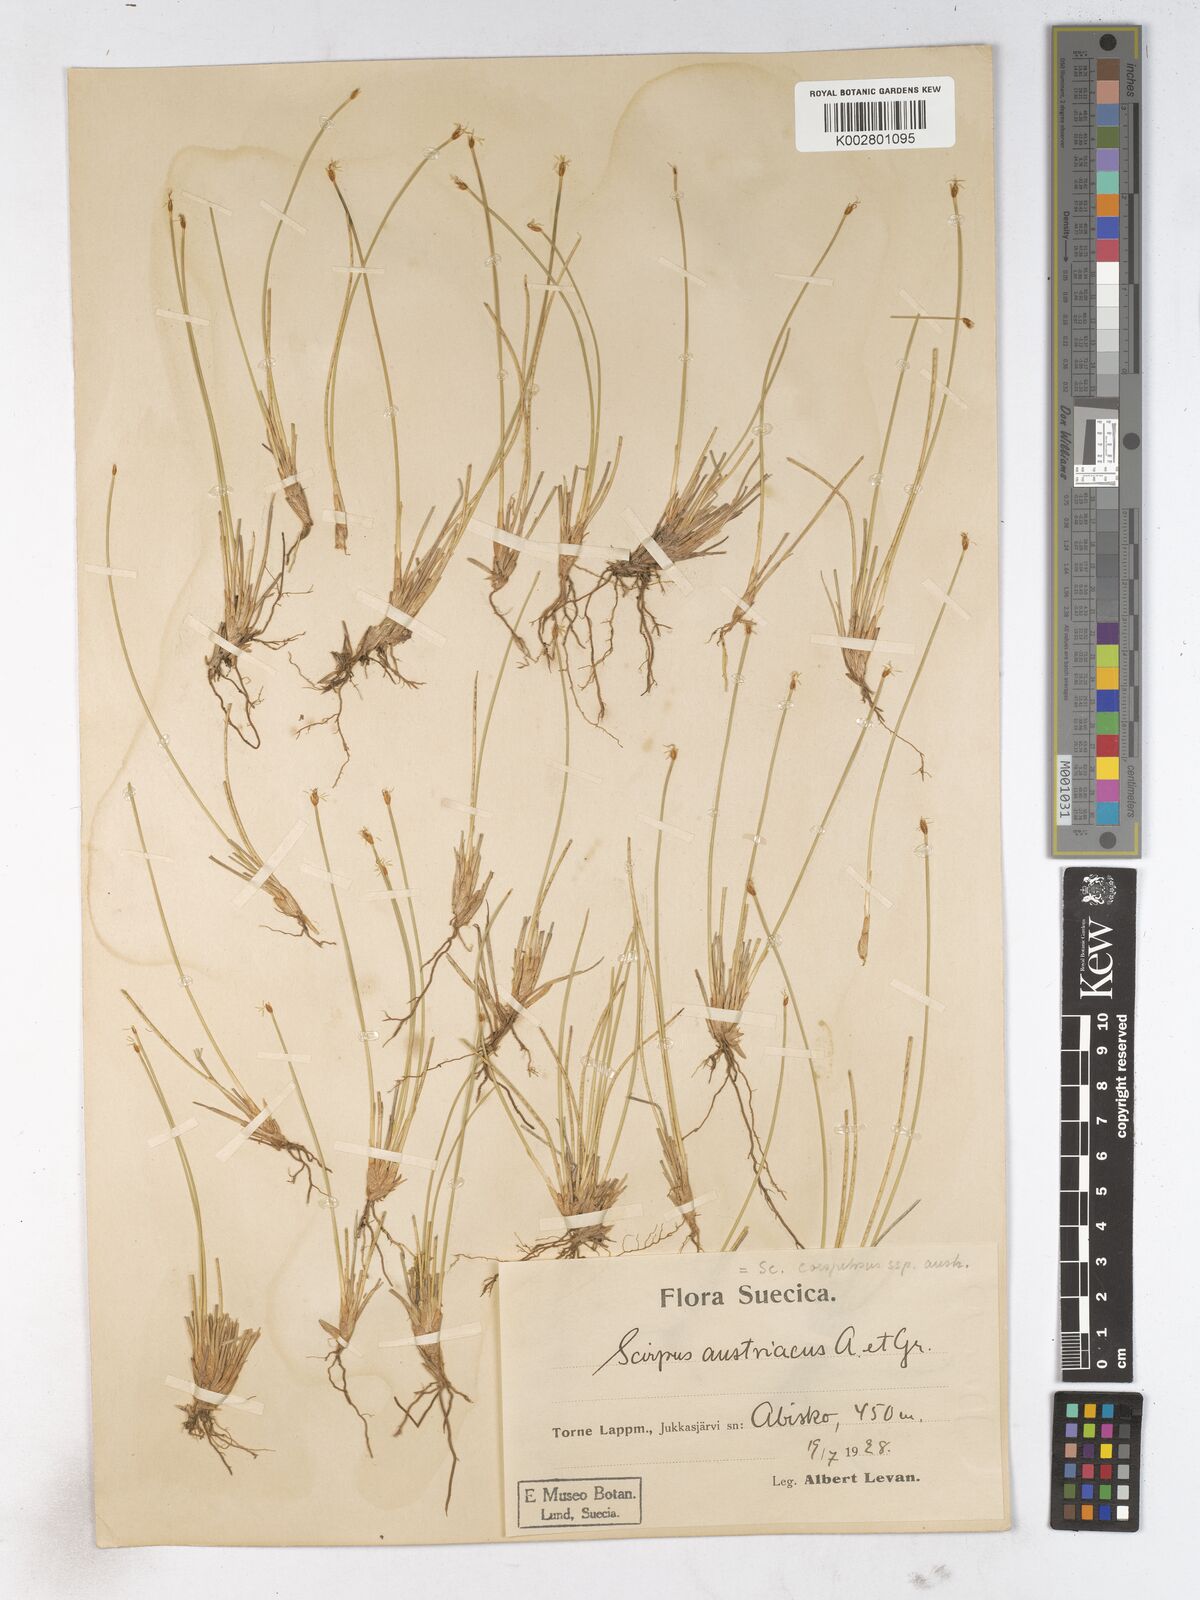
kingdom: Plantae
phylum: Tracheophyta
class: Liliopsida
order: Poales
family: Cyperaceae
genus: Trichophorum
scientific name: Trichophorum cespitosum
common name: Cespitose bulrush
